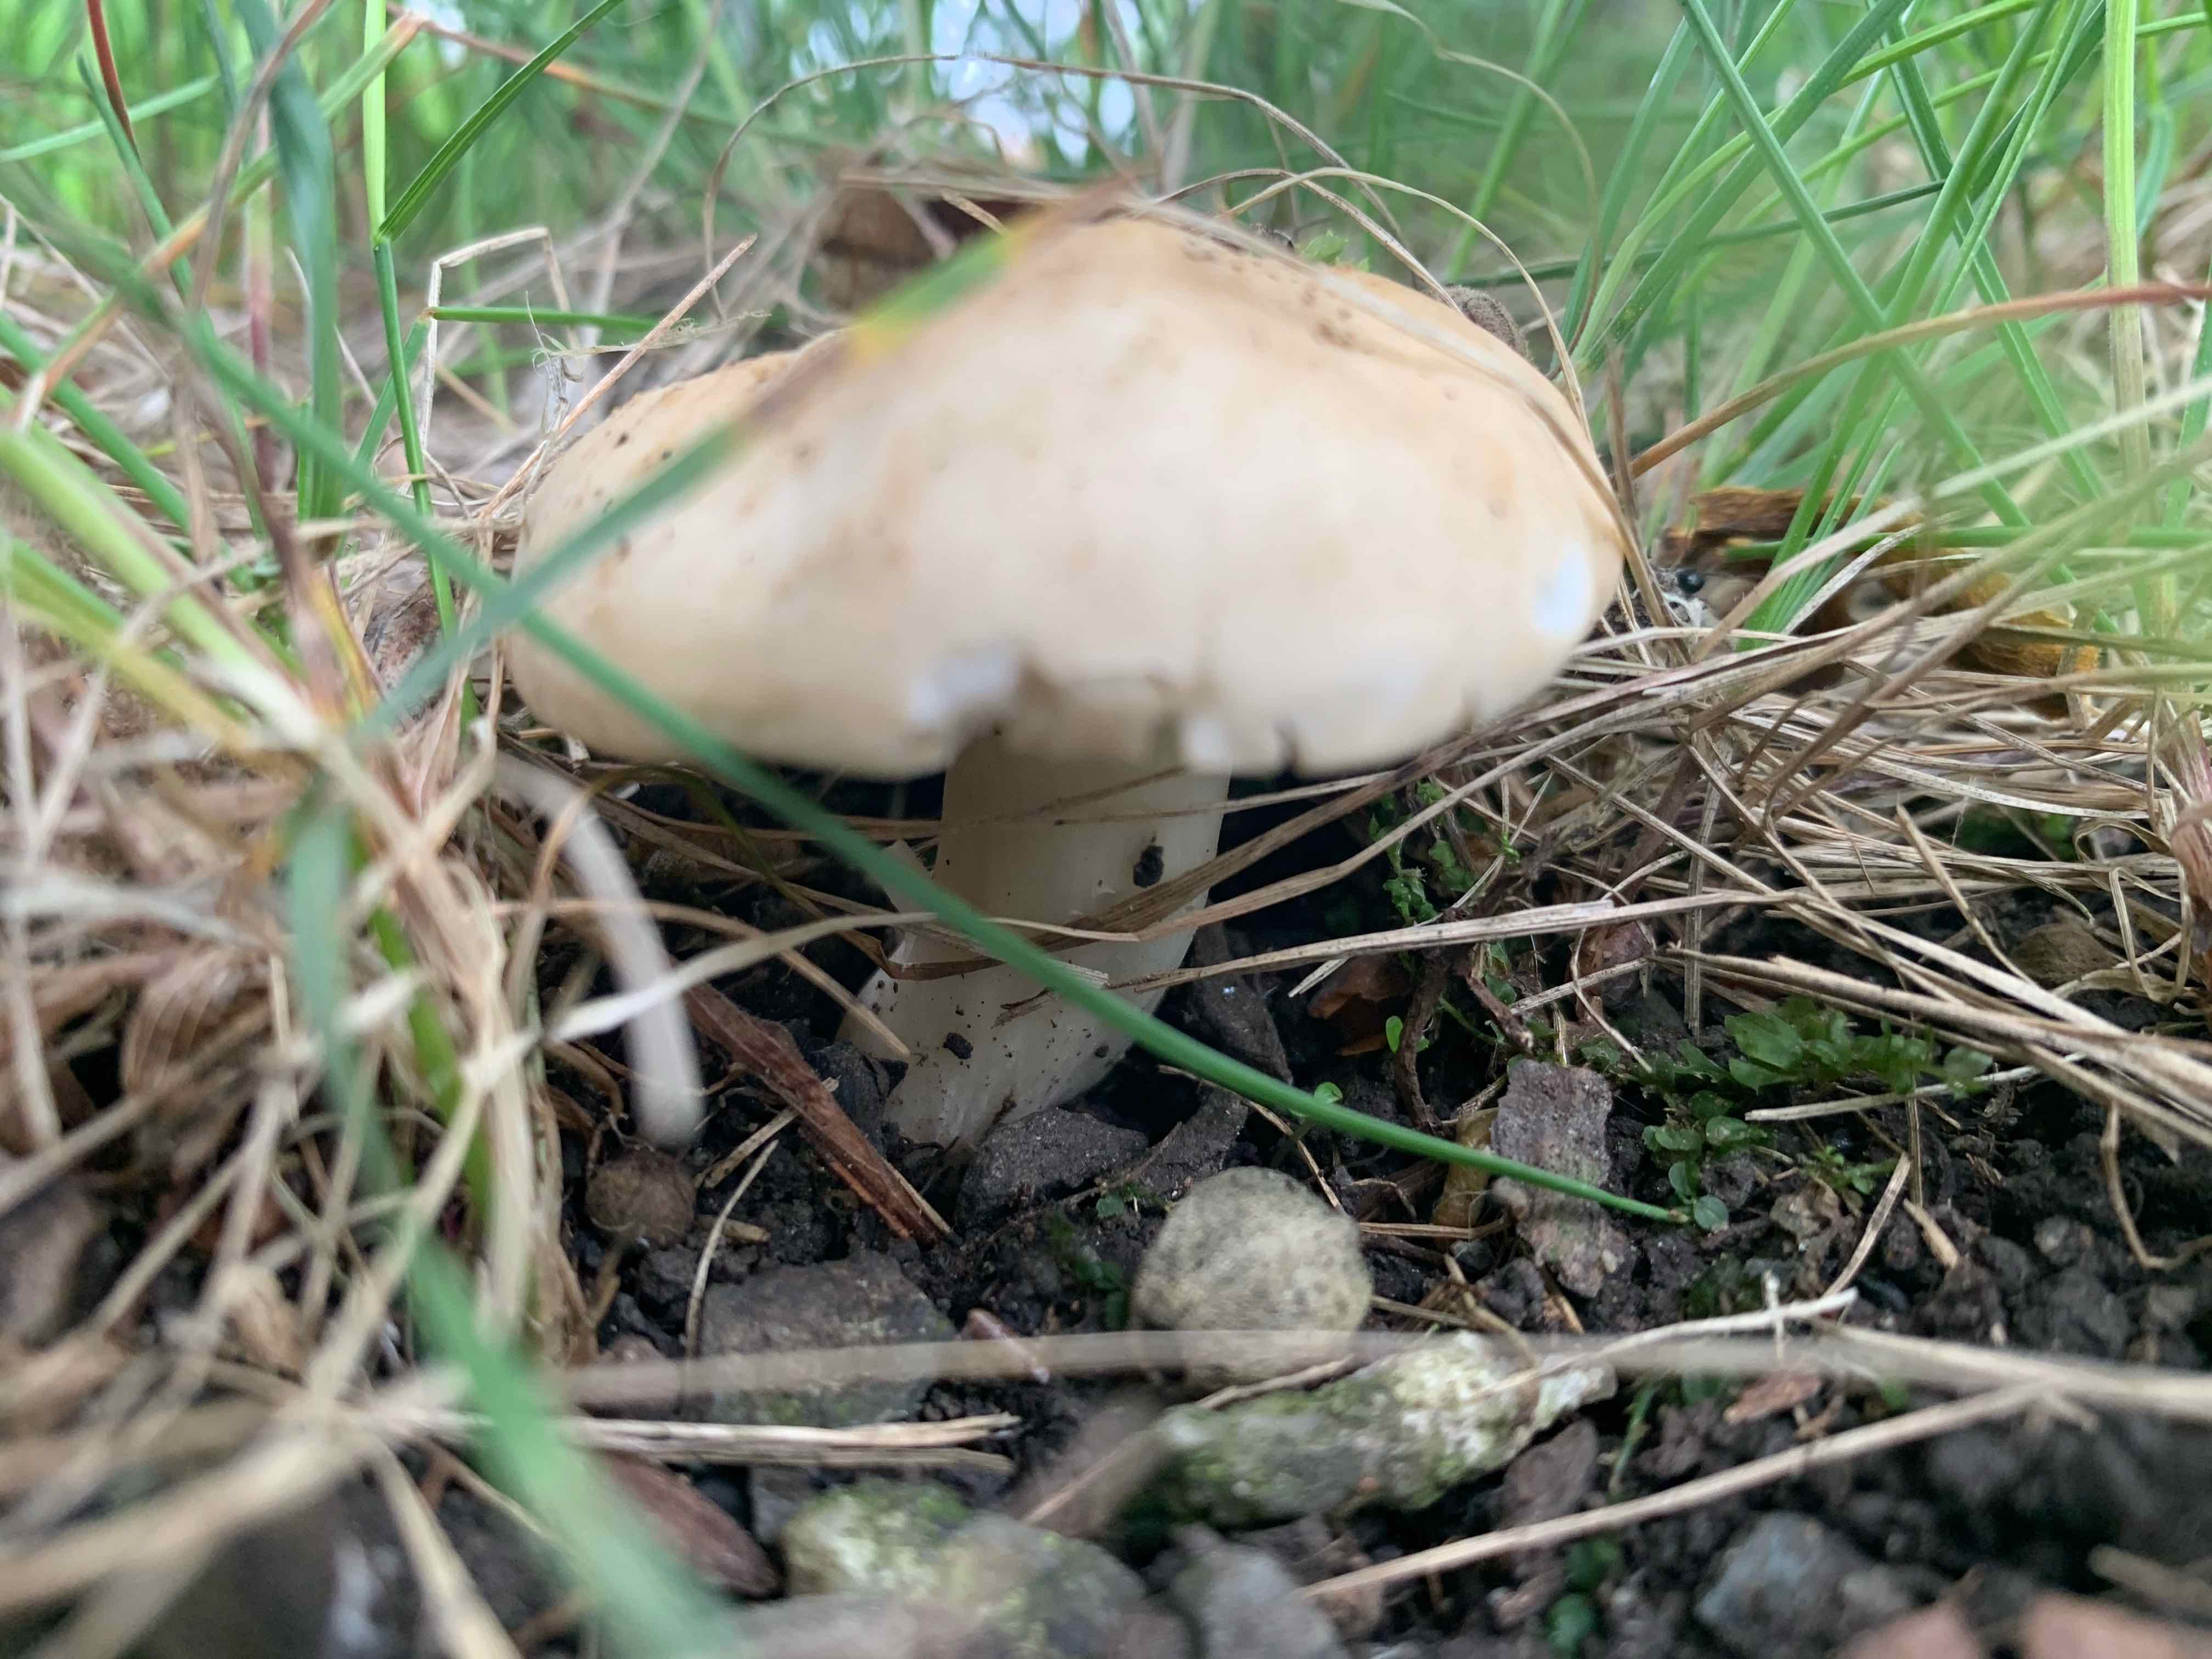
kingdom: Fungi
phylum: Basidiomycota
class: Agaricomycetes
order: Agaricales
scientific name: Agaricales
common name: champignonordenen
